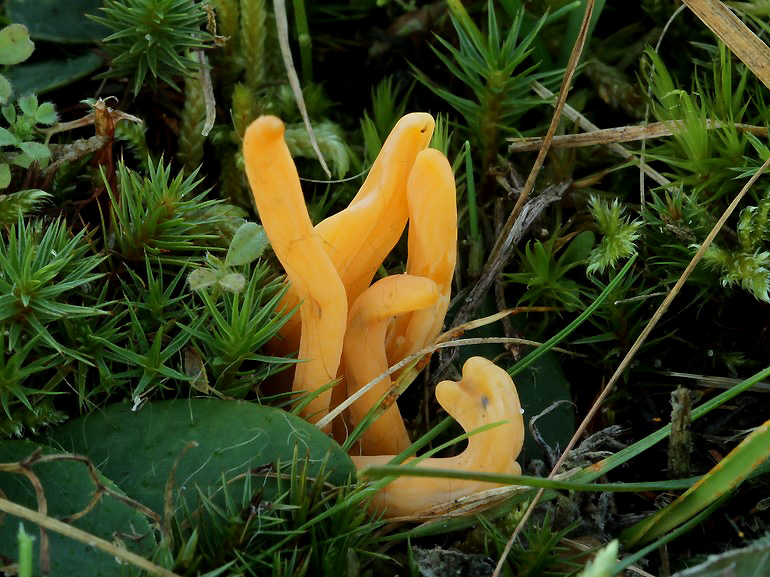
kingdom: Fungi
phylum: Basidiomycota
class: Agaricomycetes
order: Agaricales
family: Clavariaceae
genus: Clavulinopsis
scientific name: Clavulinopsis luteoalba
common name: abrikos-køllesvamp
